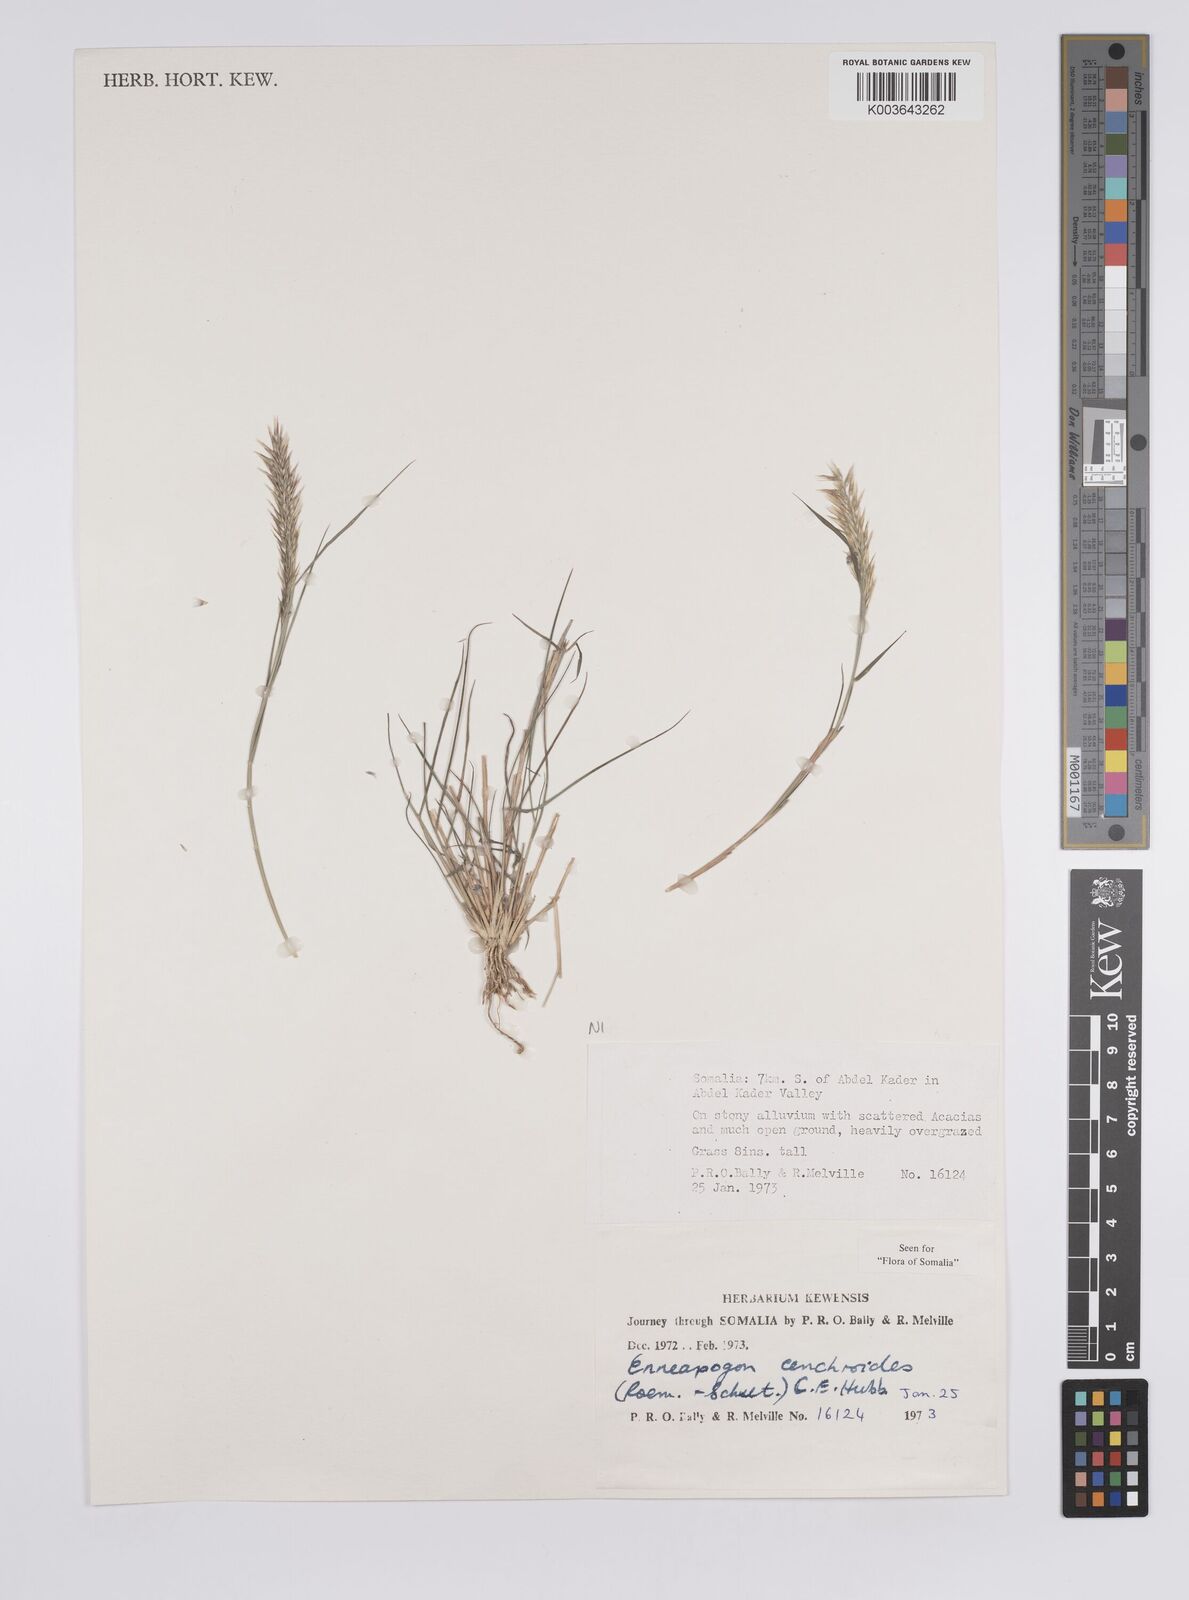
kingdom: Plantae
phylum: Tracheophyta
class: Liliopsida
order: Poales
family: Poaceae
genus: Enneapogon
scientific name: Enneapogon cenchroides
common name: Soft feather pappusgrass
